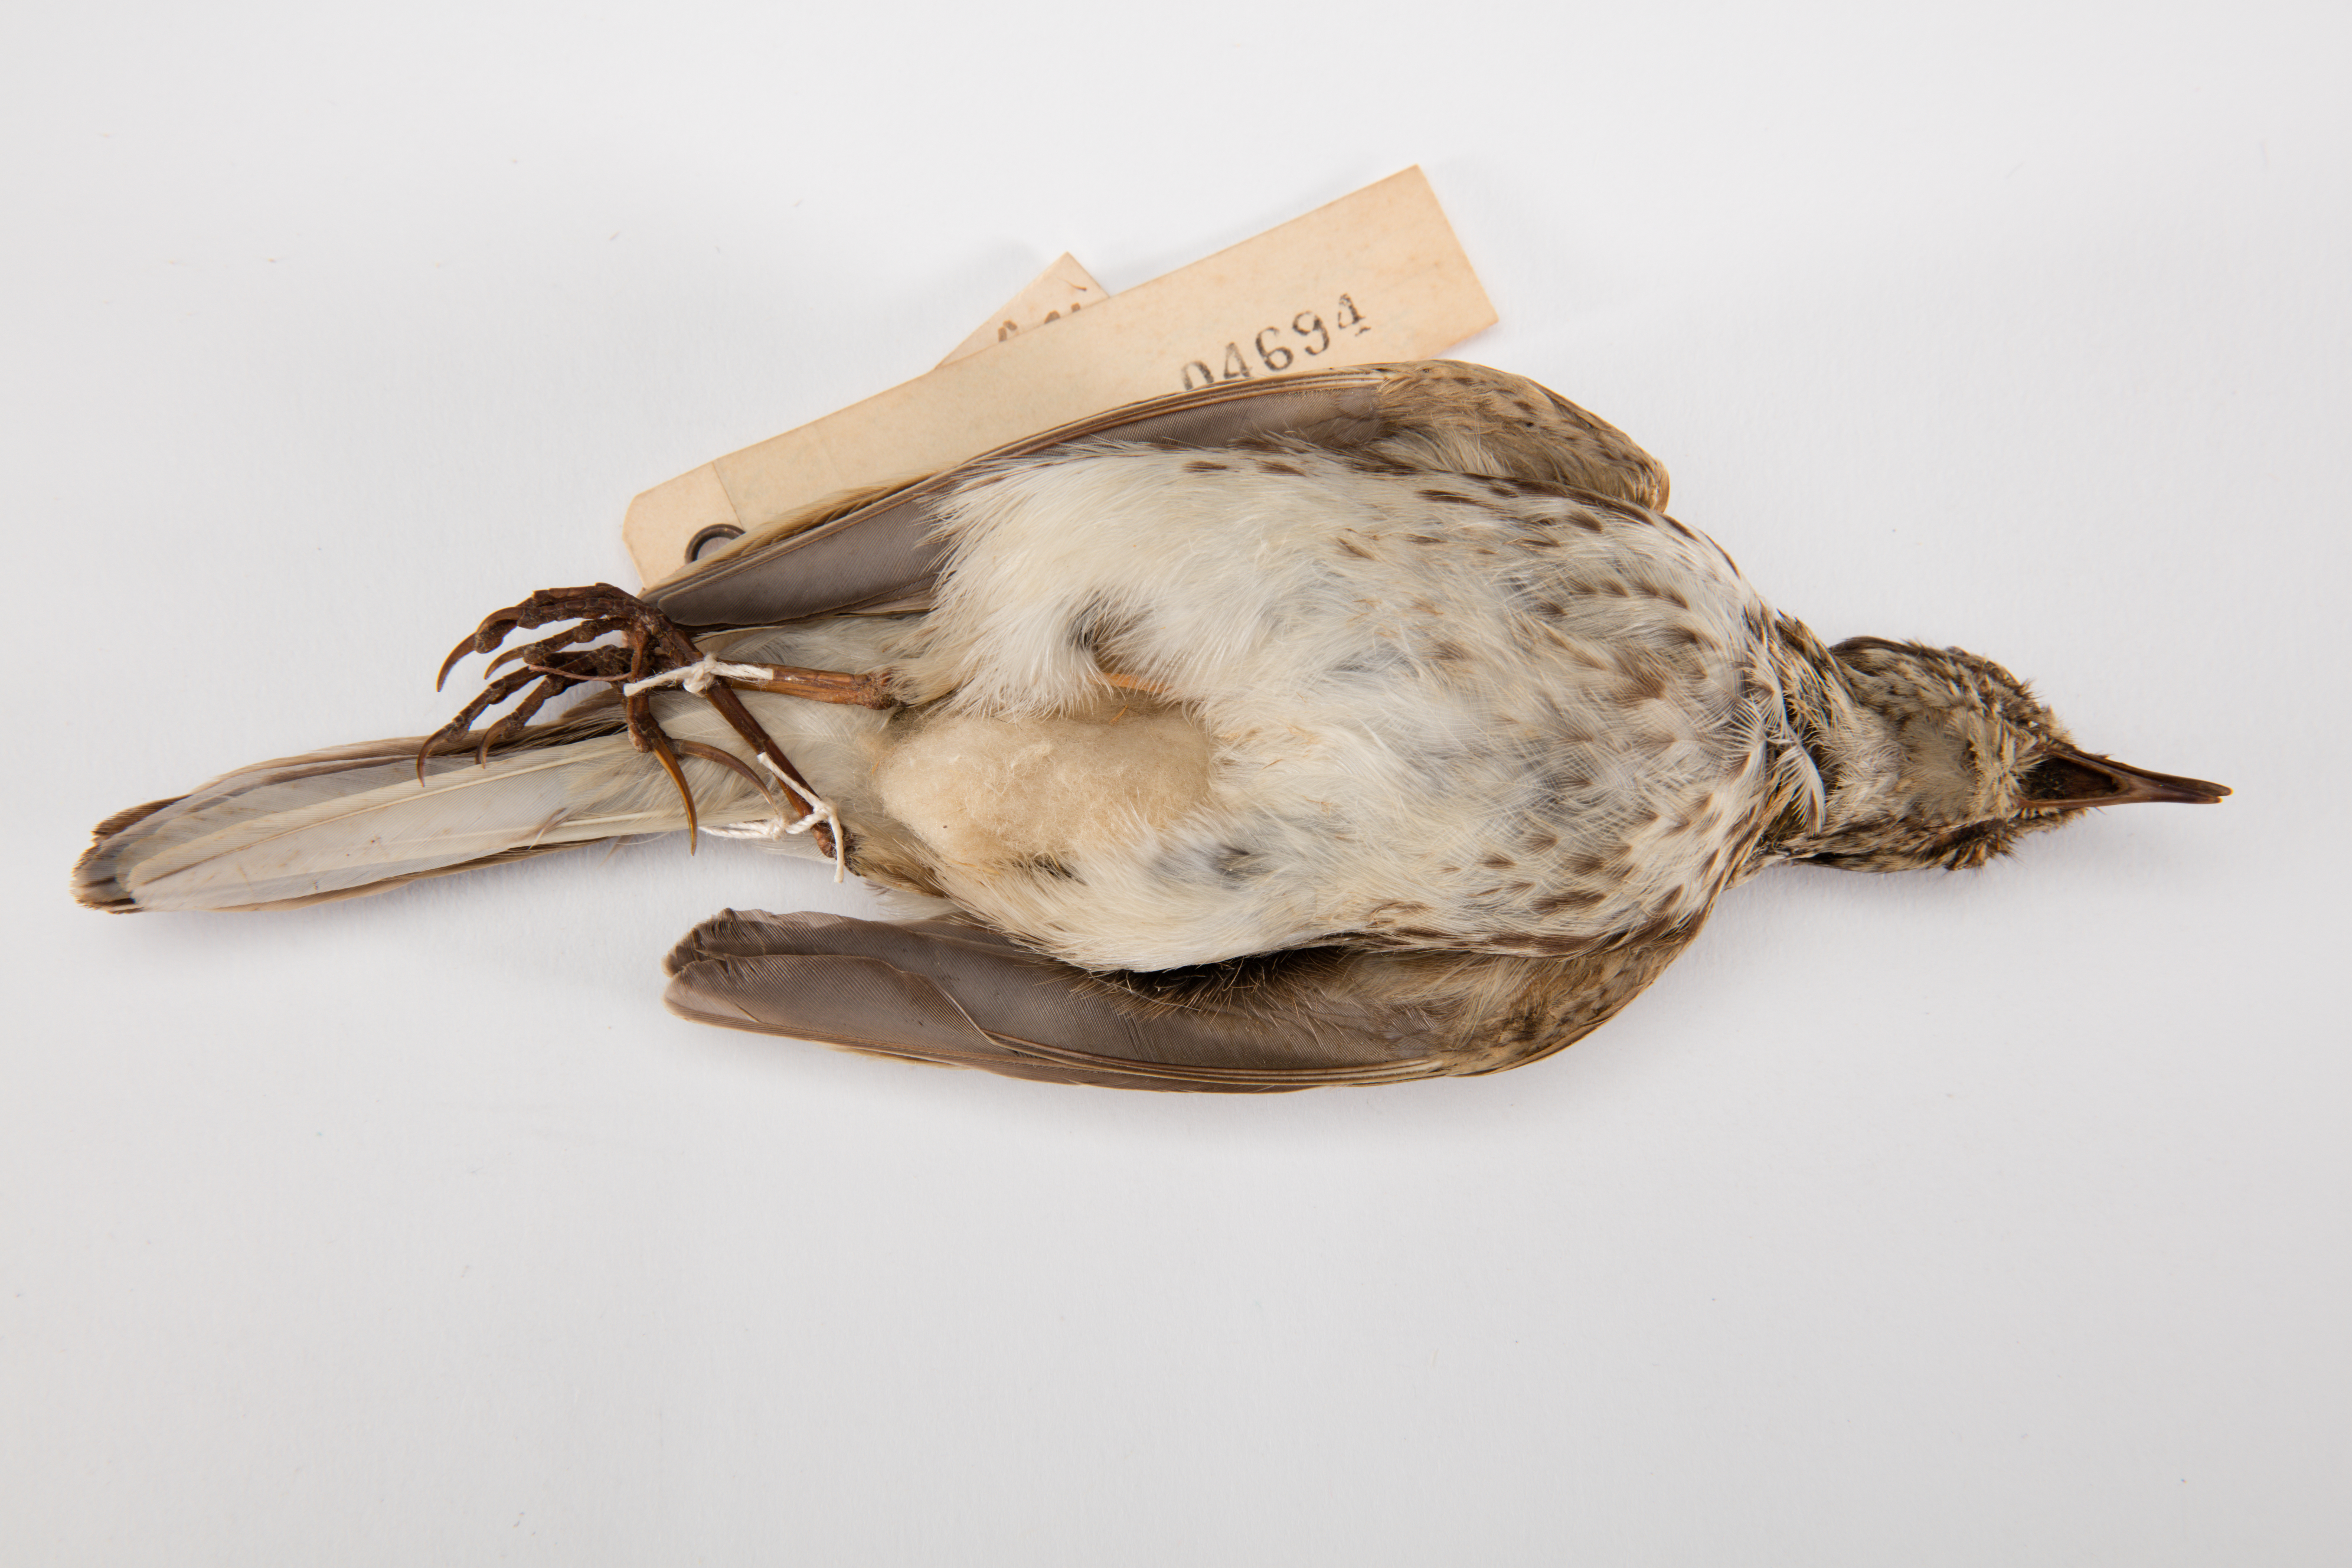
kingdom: Animalia
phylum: Chordata
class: Aves
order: Passeriformes
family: Motacillidae
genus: Anthus
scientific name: Anthus novaeseelandiae
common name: New zealand pipit
